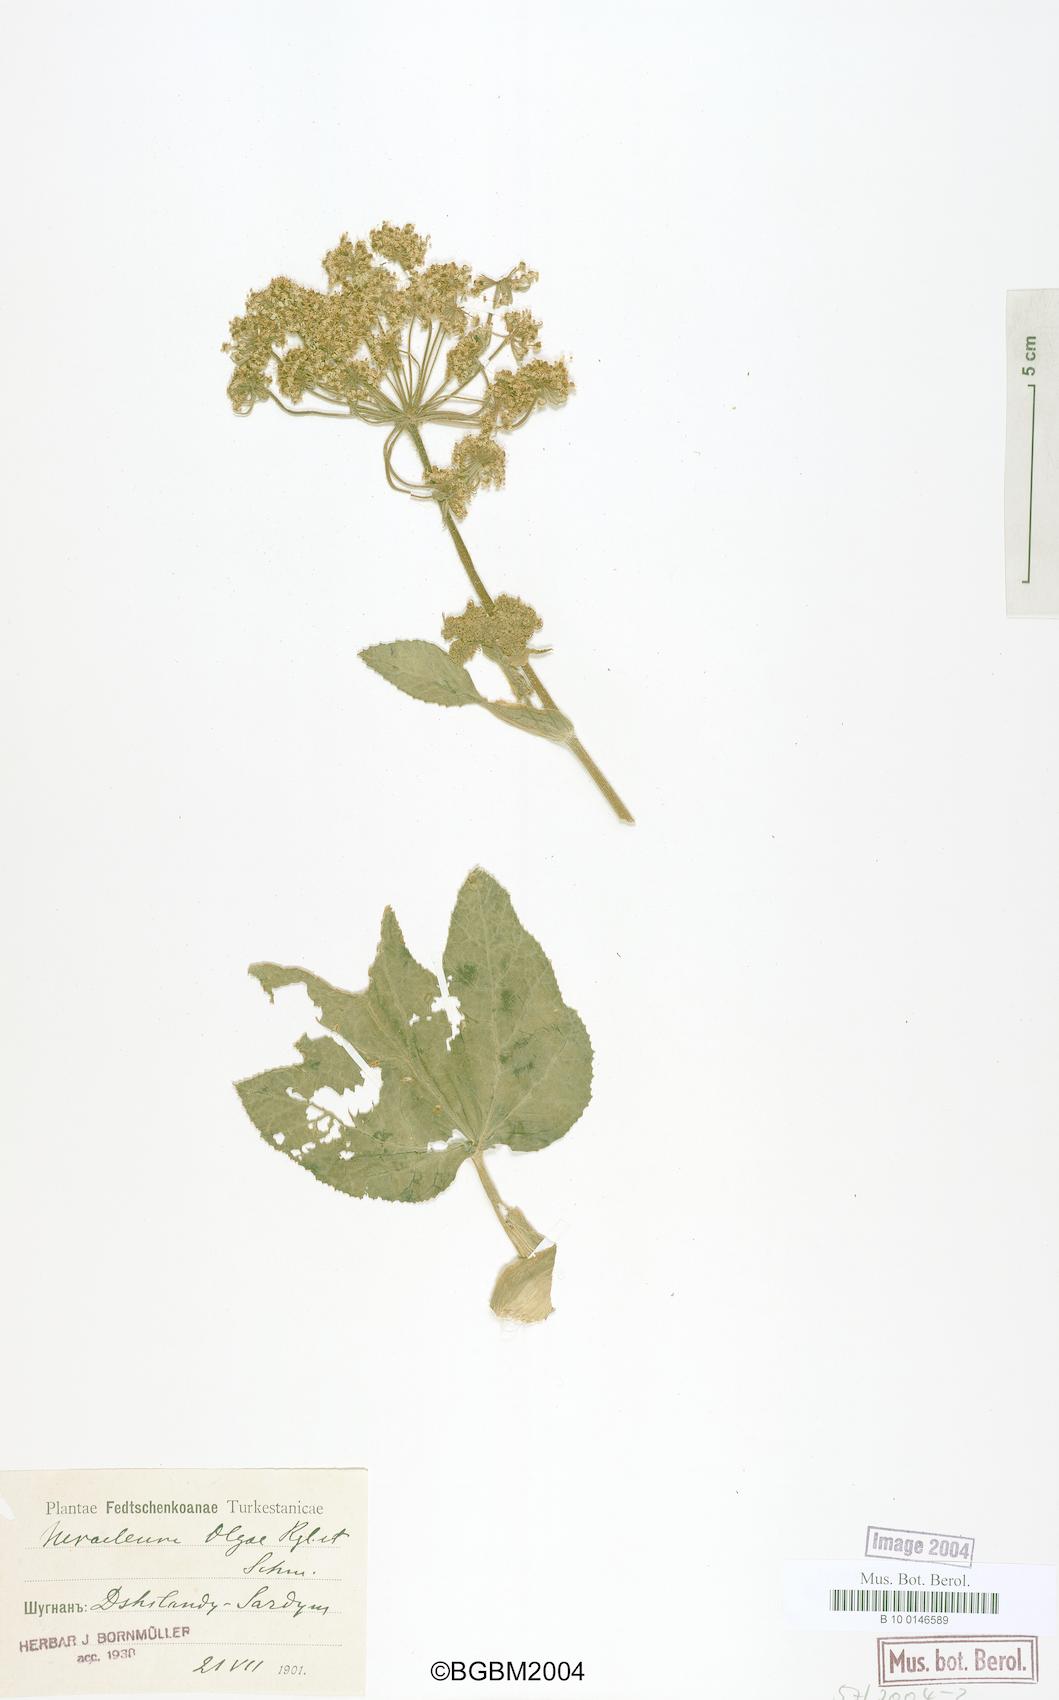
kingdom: Plantae
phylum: Tracheophyta
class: Magnoliopsida
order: Apiales
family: Apiaceae
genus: Tetrataenium
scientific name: Tetrataenium olgae
